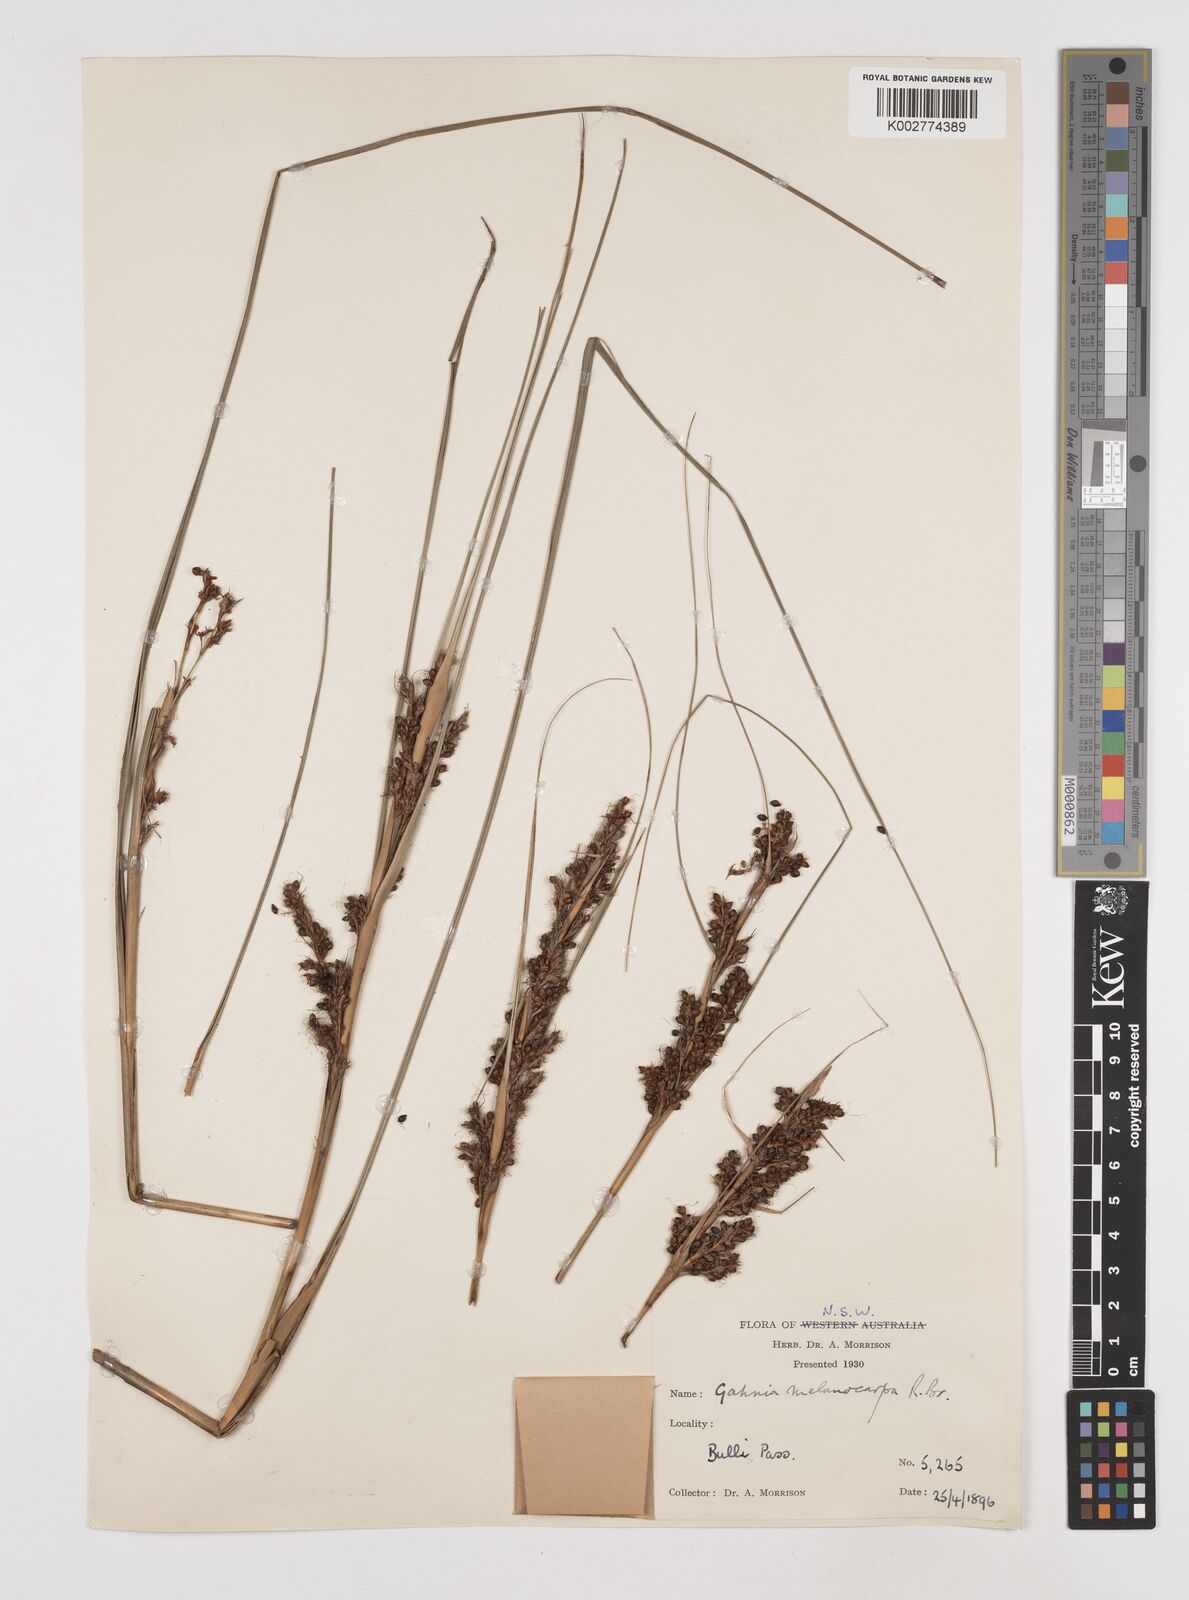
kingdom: Plantae
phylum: Tracheophyta
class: Liliopsida
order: Poales
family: Cyperaceae
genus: Gahnia
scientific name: Gahnia melanocarpa
